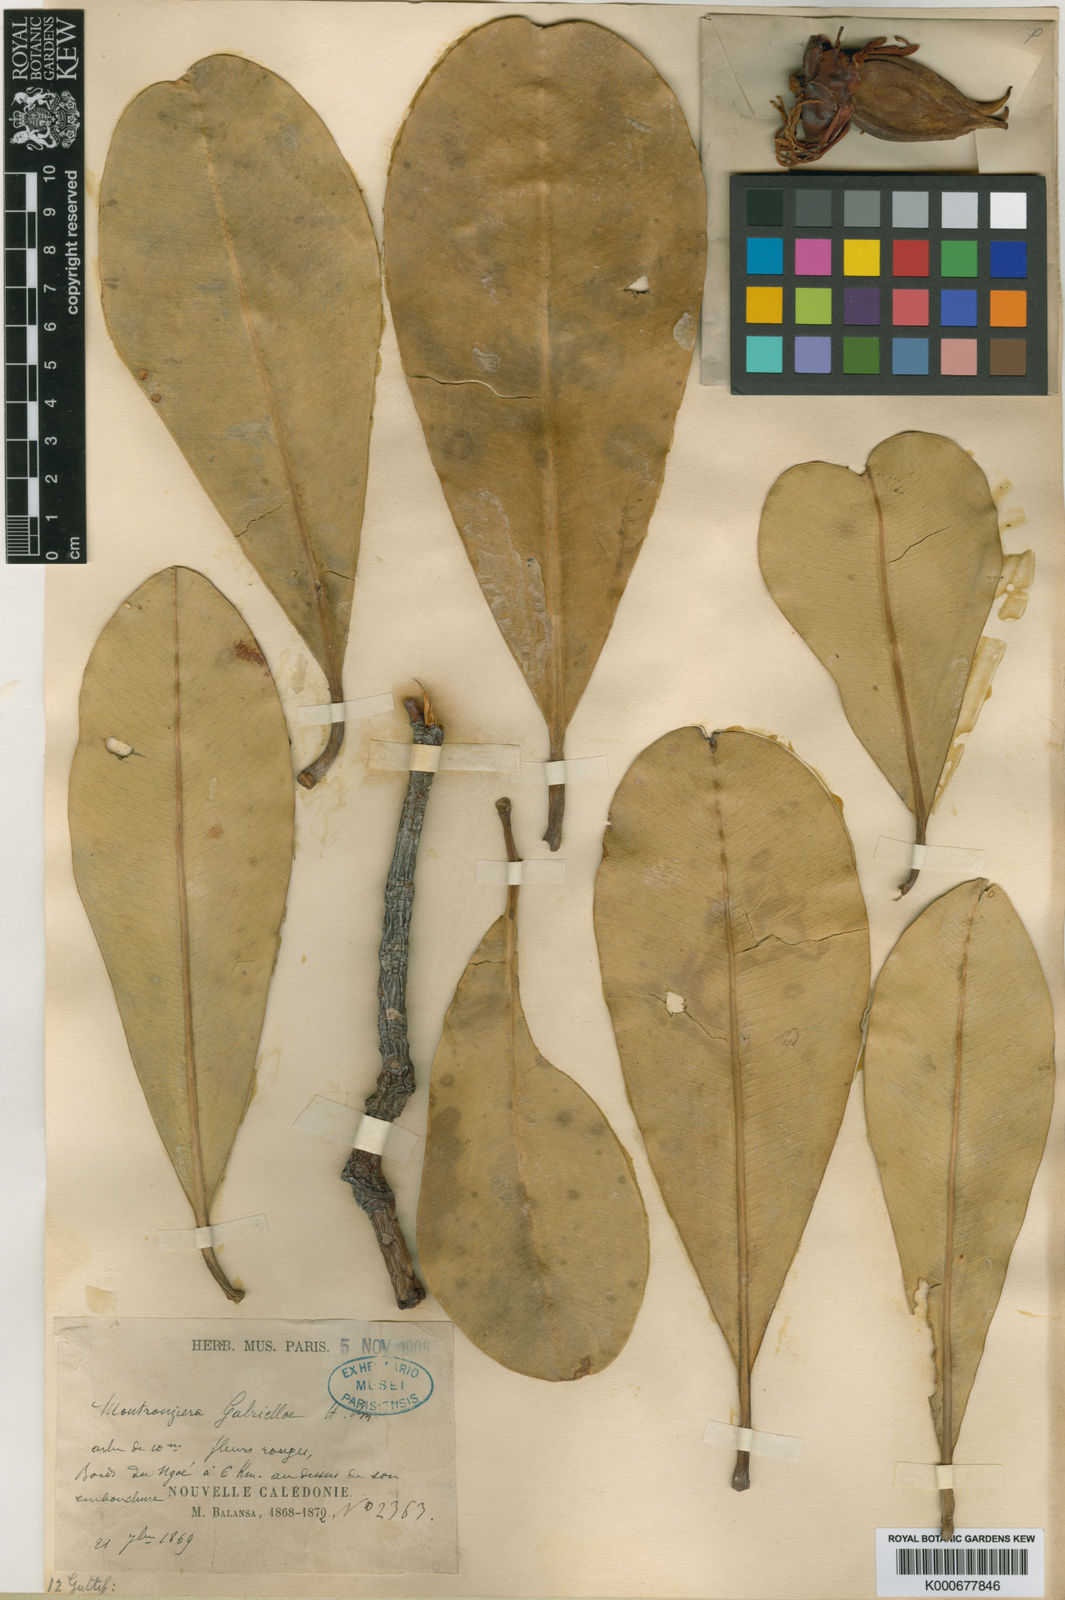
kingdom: Plantae
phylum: Tracheophyta
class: Magnoliopsida
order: Malpighiales
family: Clusiaceae
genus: Montrouziera
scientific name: Montrouziera gabriellae
